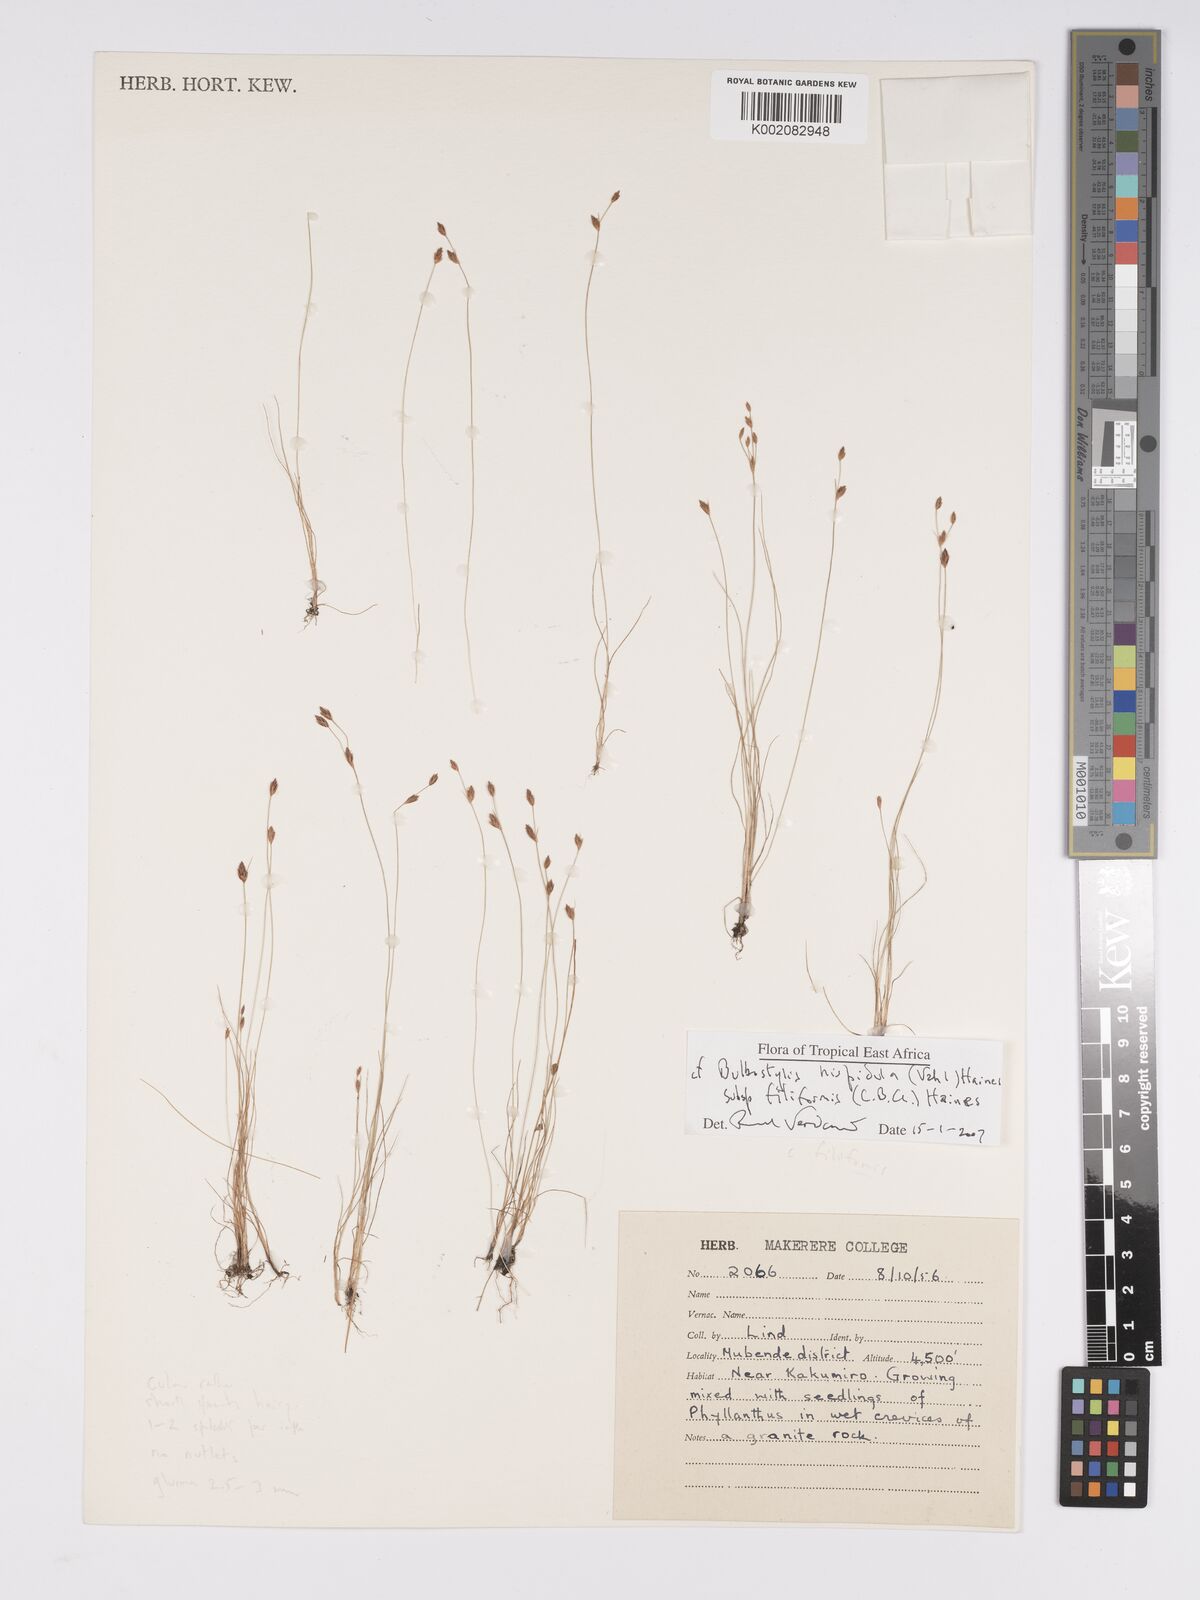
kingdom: Plantae
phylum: Tracheophyta
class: Liliopsida
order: Poales
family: Cyperaceae
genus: Bulbostylis
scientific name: Bulbostylis hispidula
